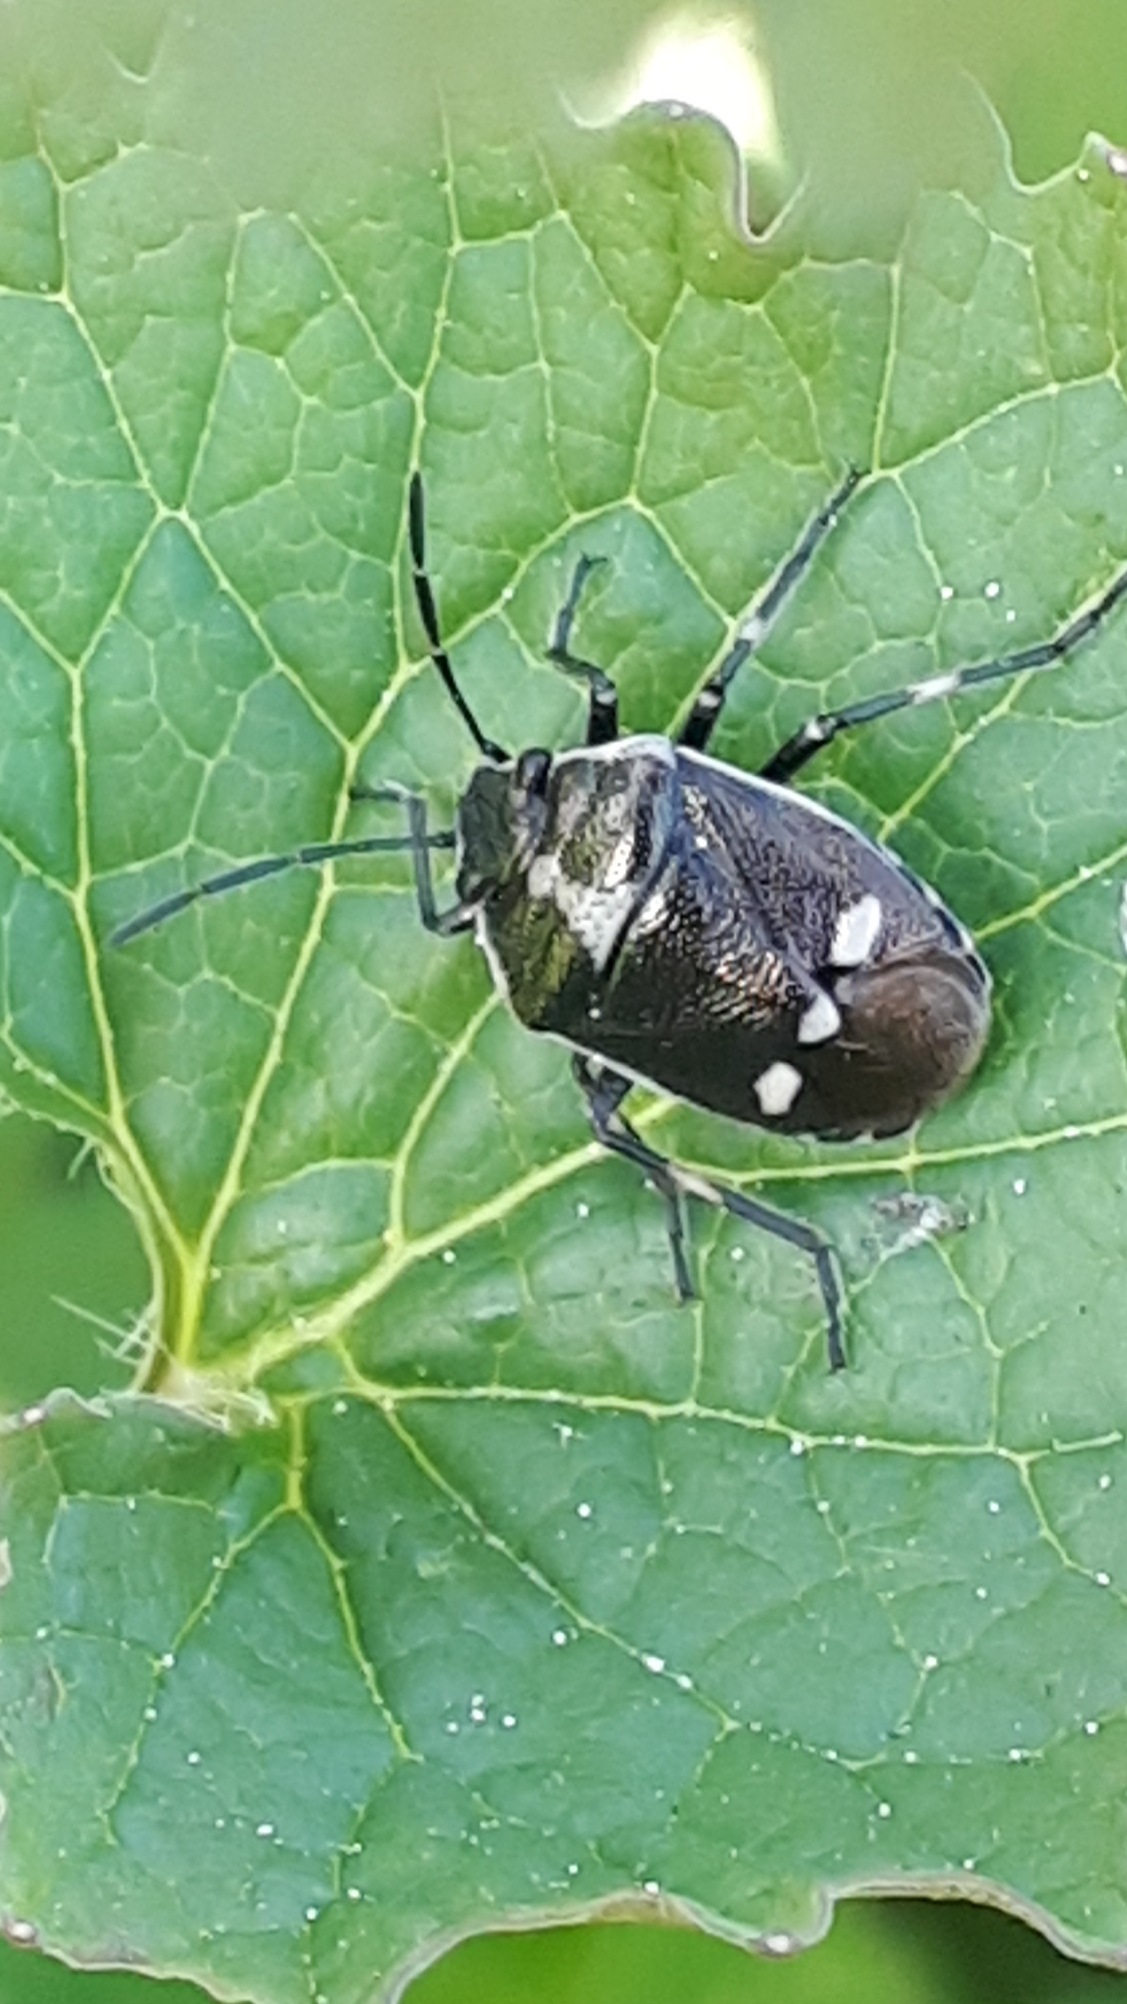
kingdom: Animalia
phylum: Arthropoda
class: Insecta
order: Hemiptera
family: Pentatomidae
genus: Eurydema
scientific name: Eurydema oleracea
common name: Almindelig kåltæge
